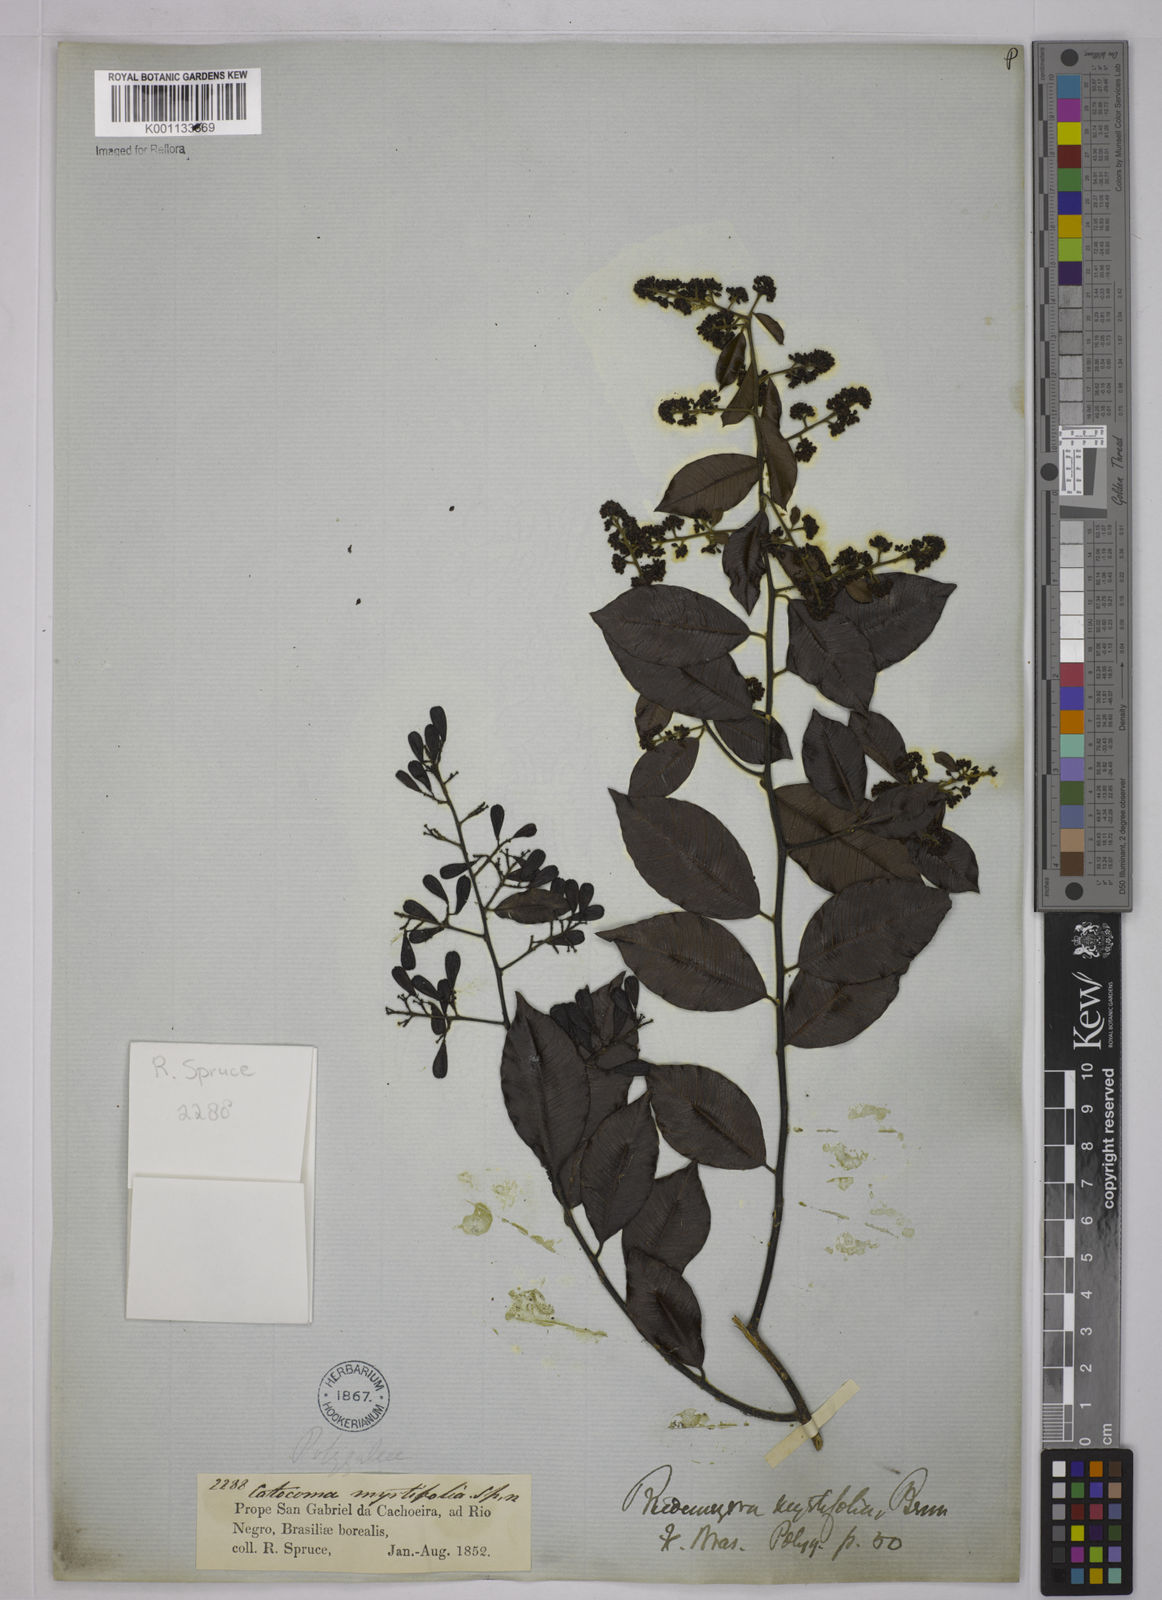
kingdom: Plantae
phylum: Tracheophyta
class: Magnoliopsida
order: Fabales
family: Polygalaceae
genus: Bredemeyera
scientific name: Bredemeyera
